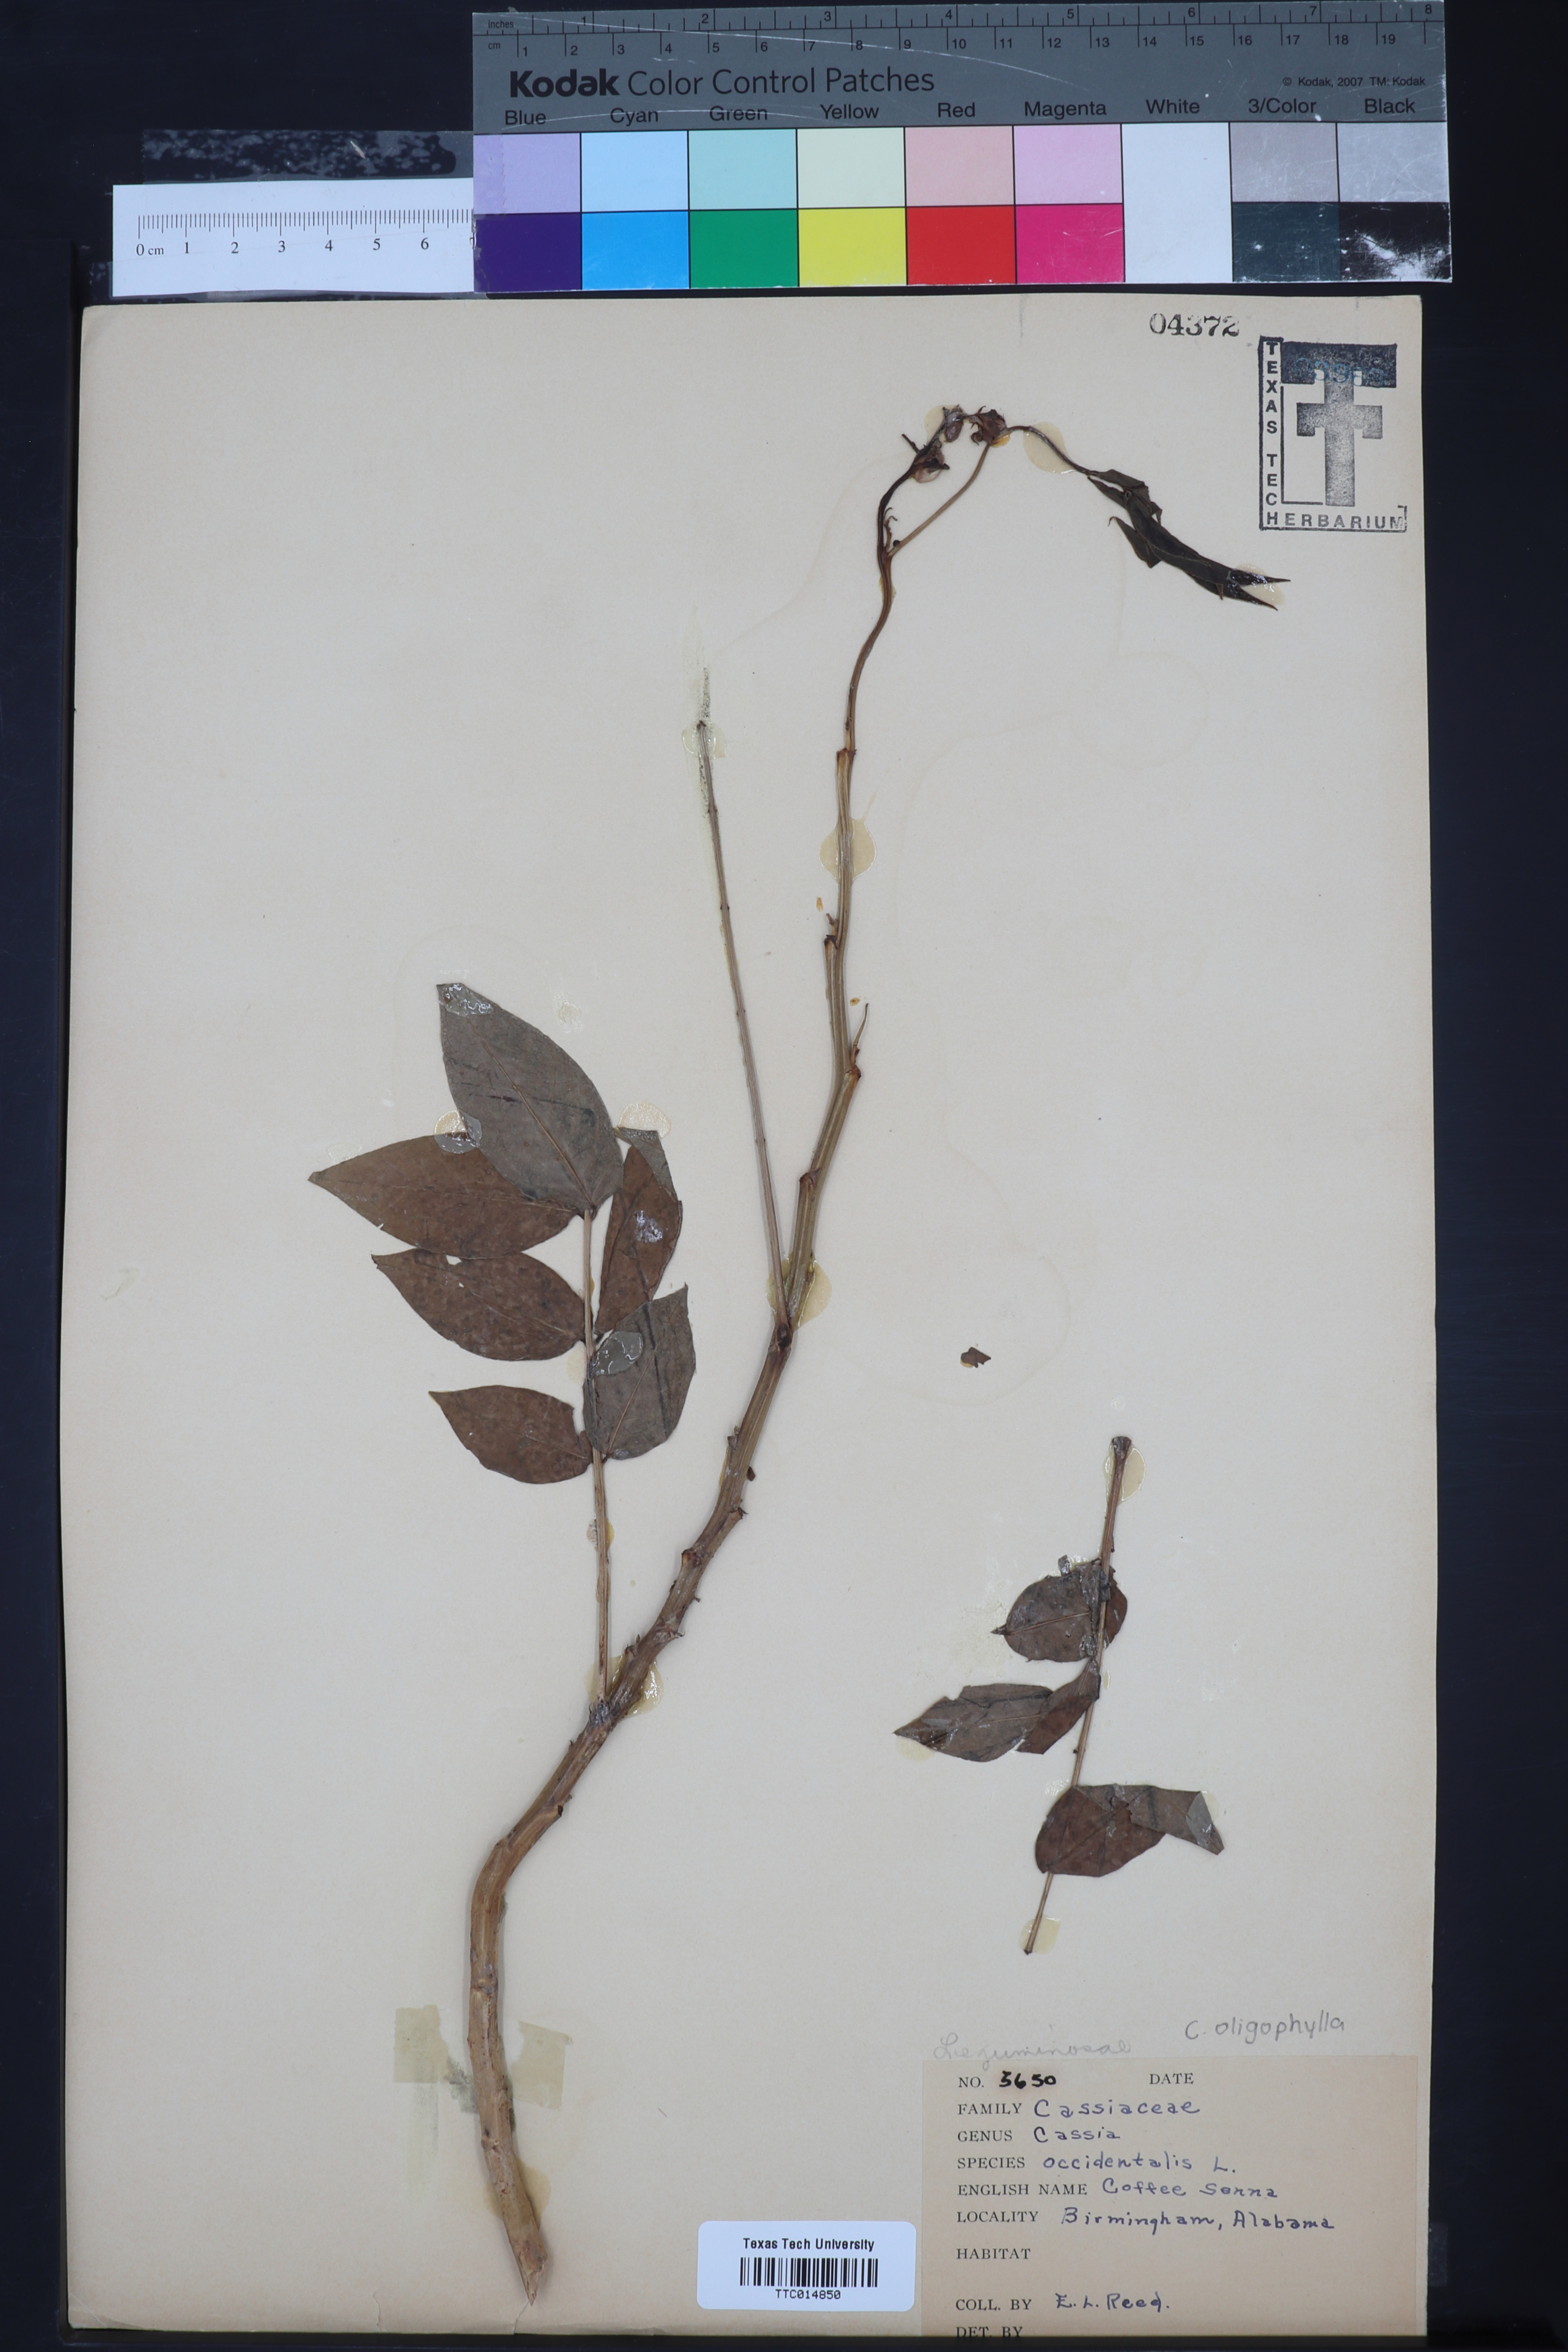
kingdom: Plantae
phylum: Tracheophyta
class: Magnoliopsida
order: Fabales
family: Fabaceae
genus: Senna
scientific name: Senna occidentalis
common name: Septicweed
